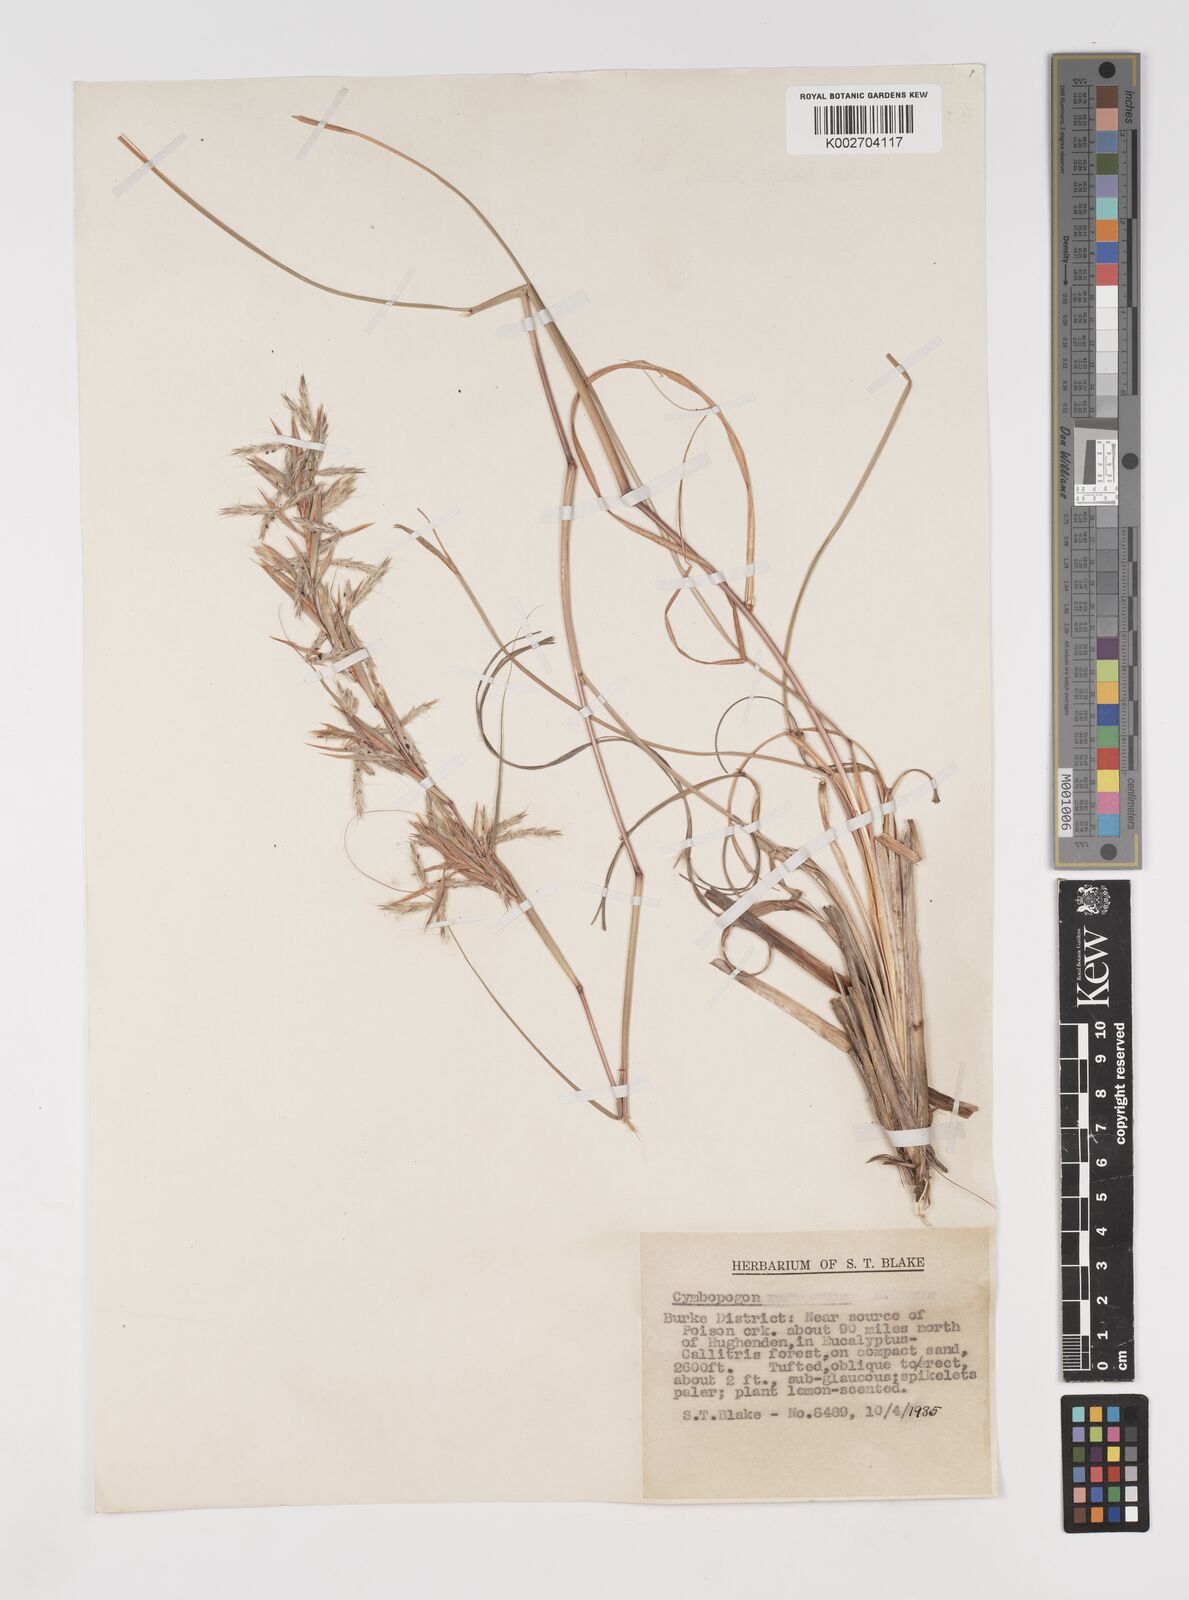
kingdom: Plantae
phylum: Tracheophyta
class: Liliopsida
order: Poales
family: Poaceae
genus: Cymbopogon
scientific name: Cymbopogon
